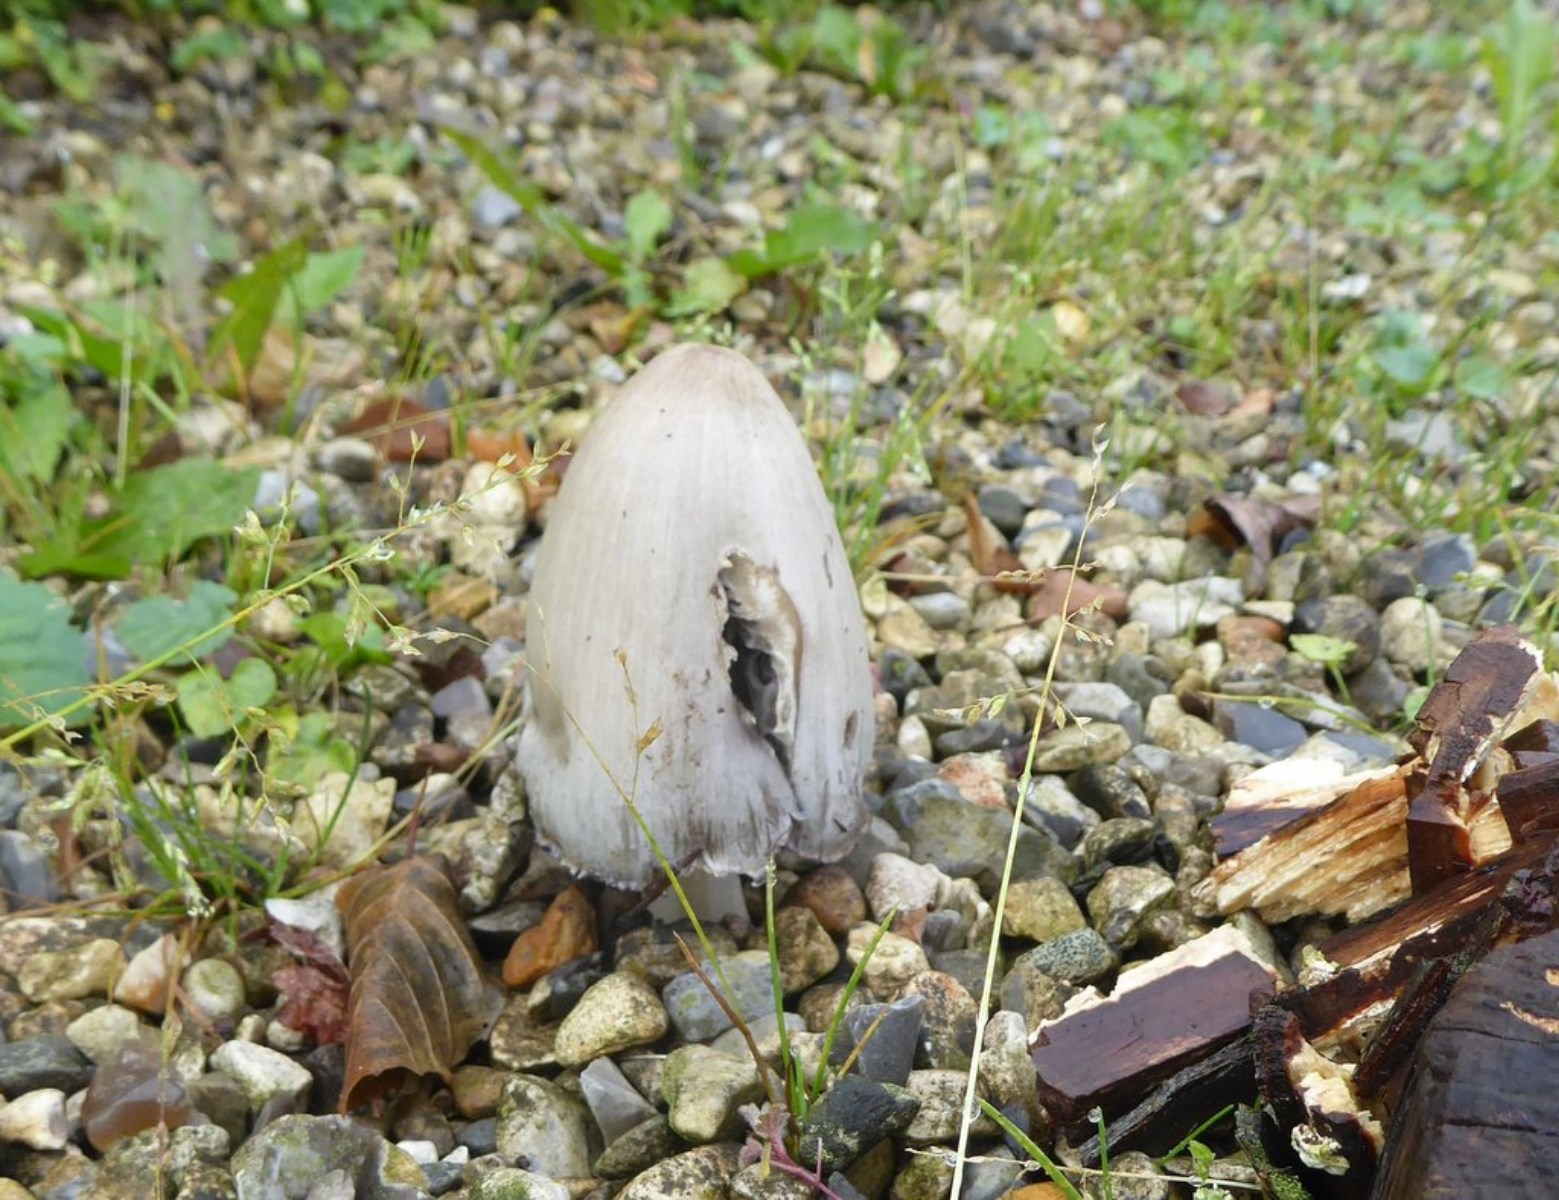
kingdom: Fungi
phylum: Basidiomycota
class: Agaricomycetes
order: Agaricales
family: Psathyrellaceae
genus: Coprinopsis
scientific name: Coprinopsis atramentaria
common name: almindelig blækhat
